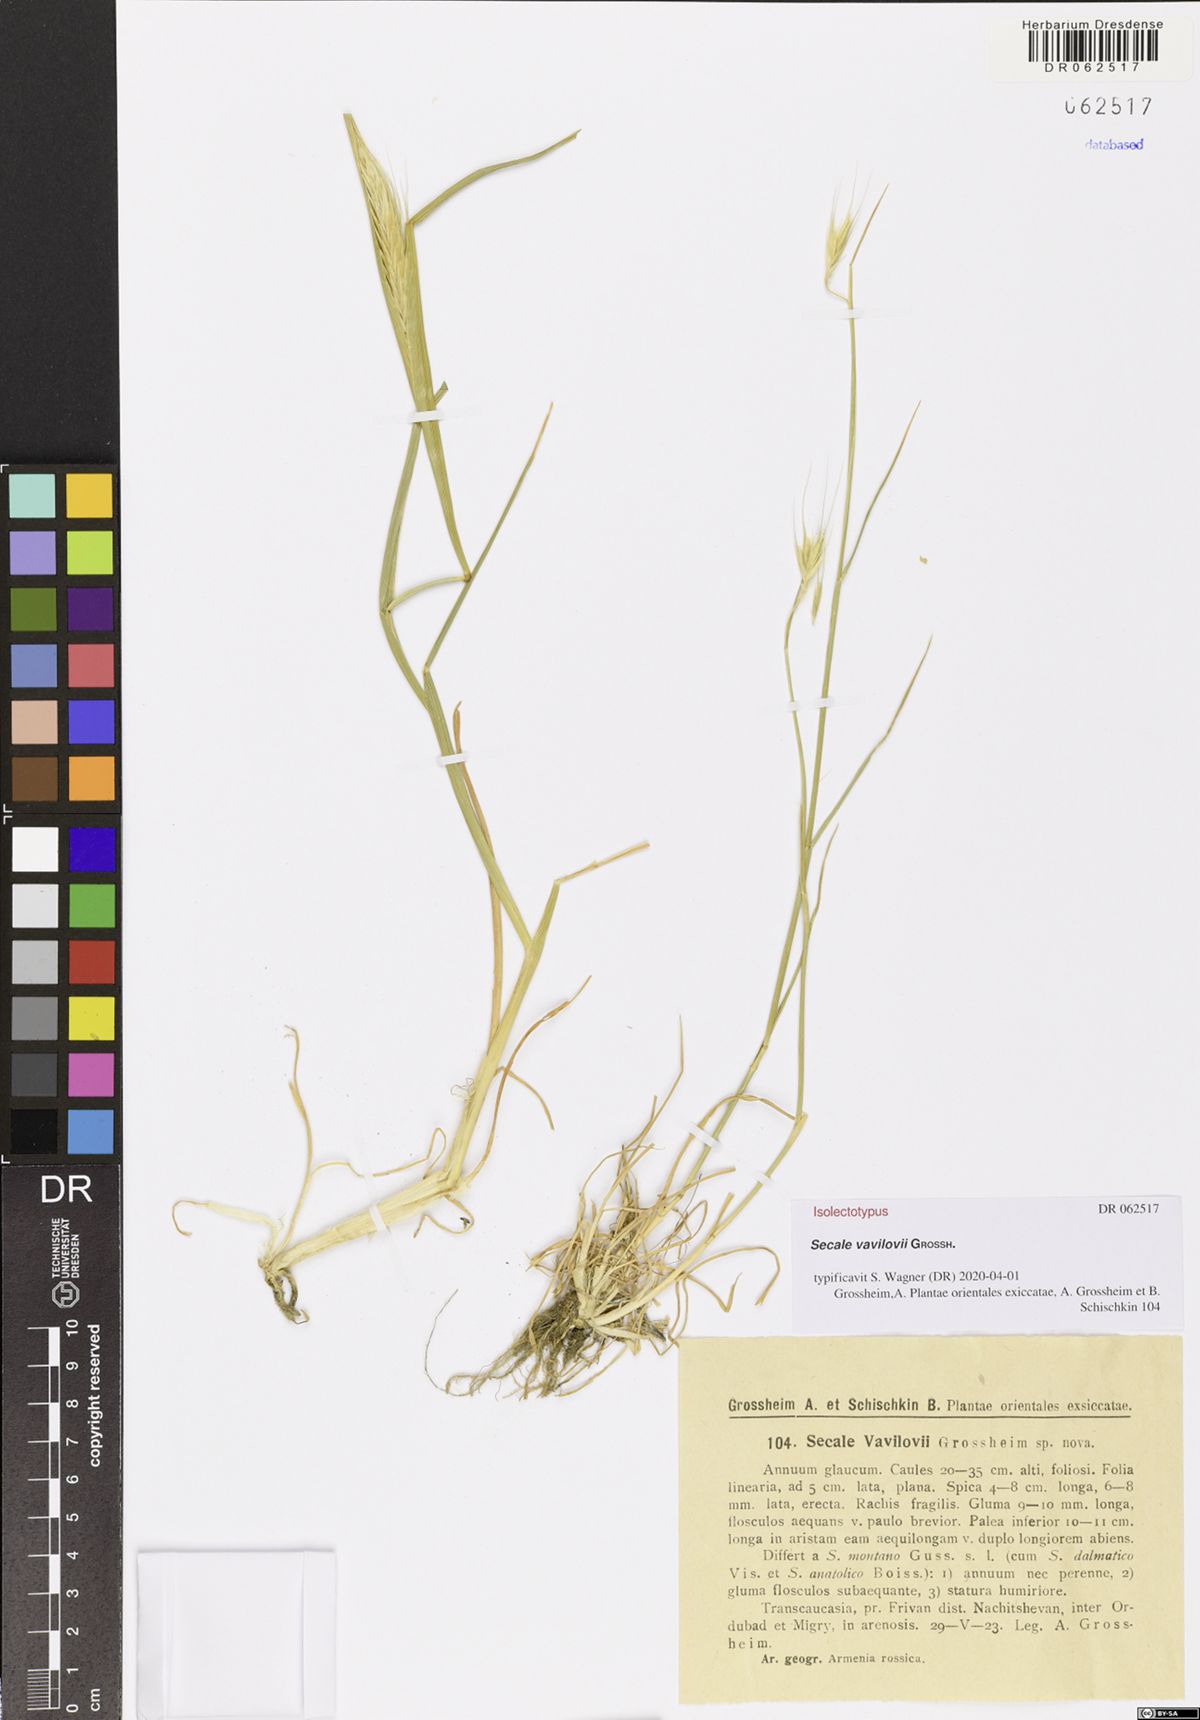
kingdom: Plantae
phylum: Tracheophyta
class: Liliopsida
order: Poales
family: Poaceae
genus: Secale
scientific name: Secale vavilovii
